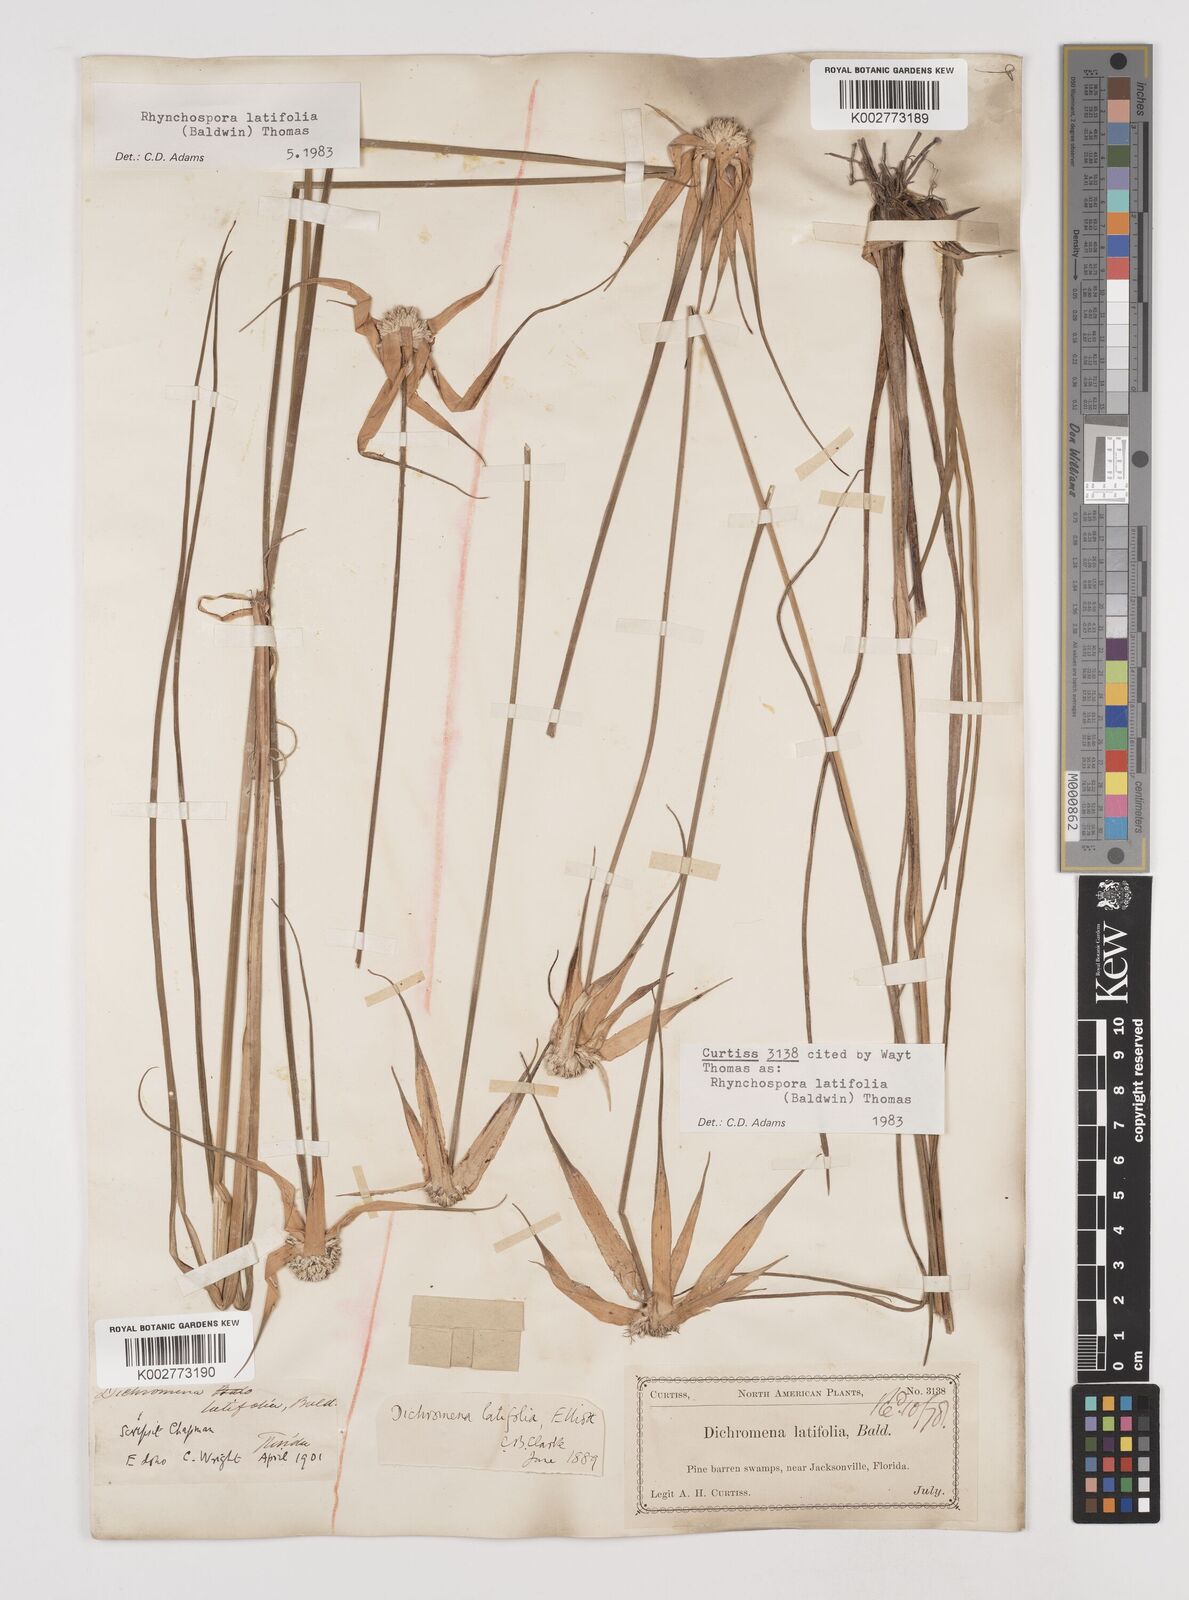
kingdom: Plantae
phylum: Tracheophyta
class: Liliopsida
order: Poales
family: Cyperaceae
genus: Rhynchospora
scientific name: Rhynchospora latifolia
